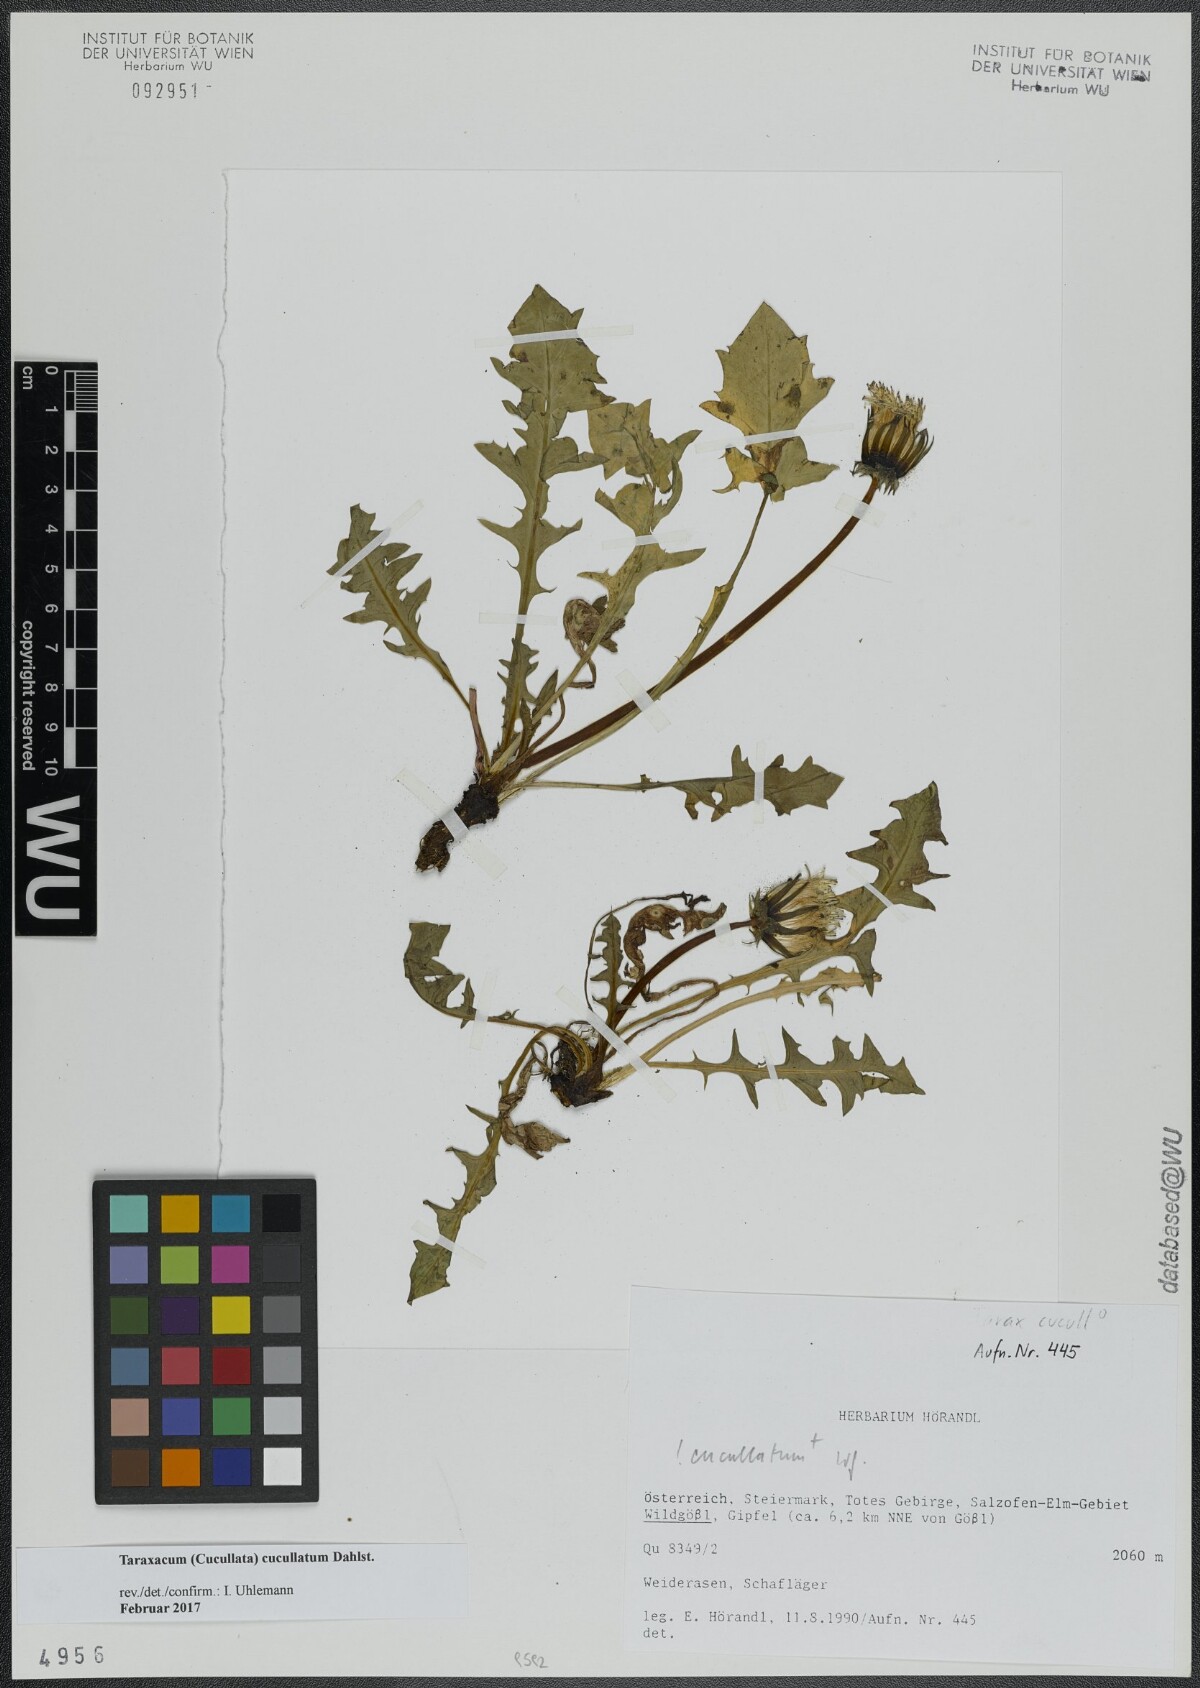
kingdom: Plantae
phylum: Tracheophyta
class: Magnoliopsida
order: Asterales
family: Asteraceae
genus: Taraxacum
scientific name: Taraxacum cucullatum
